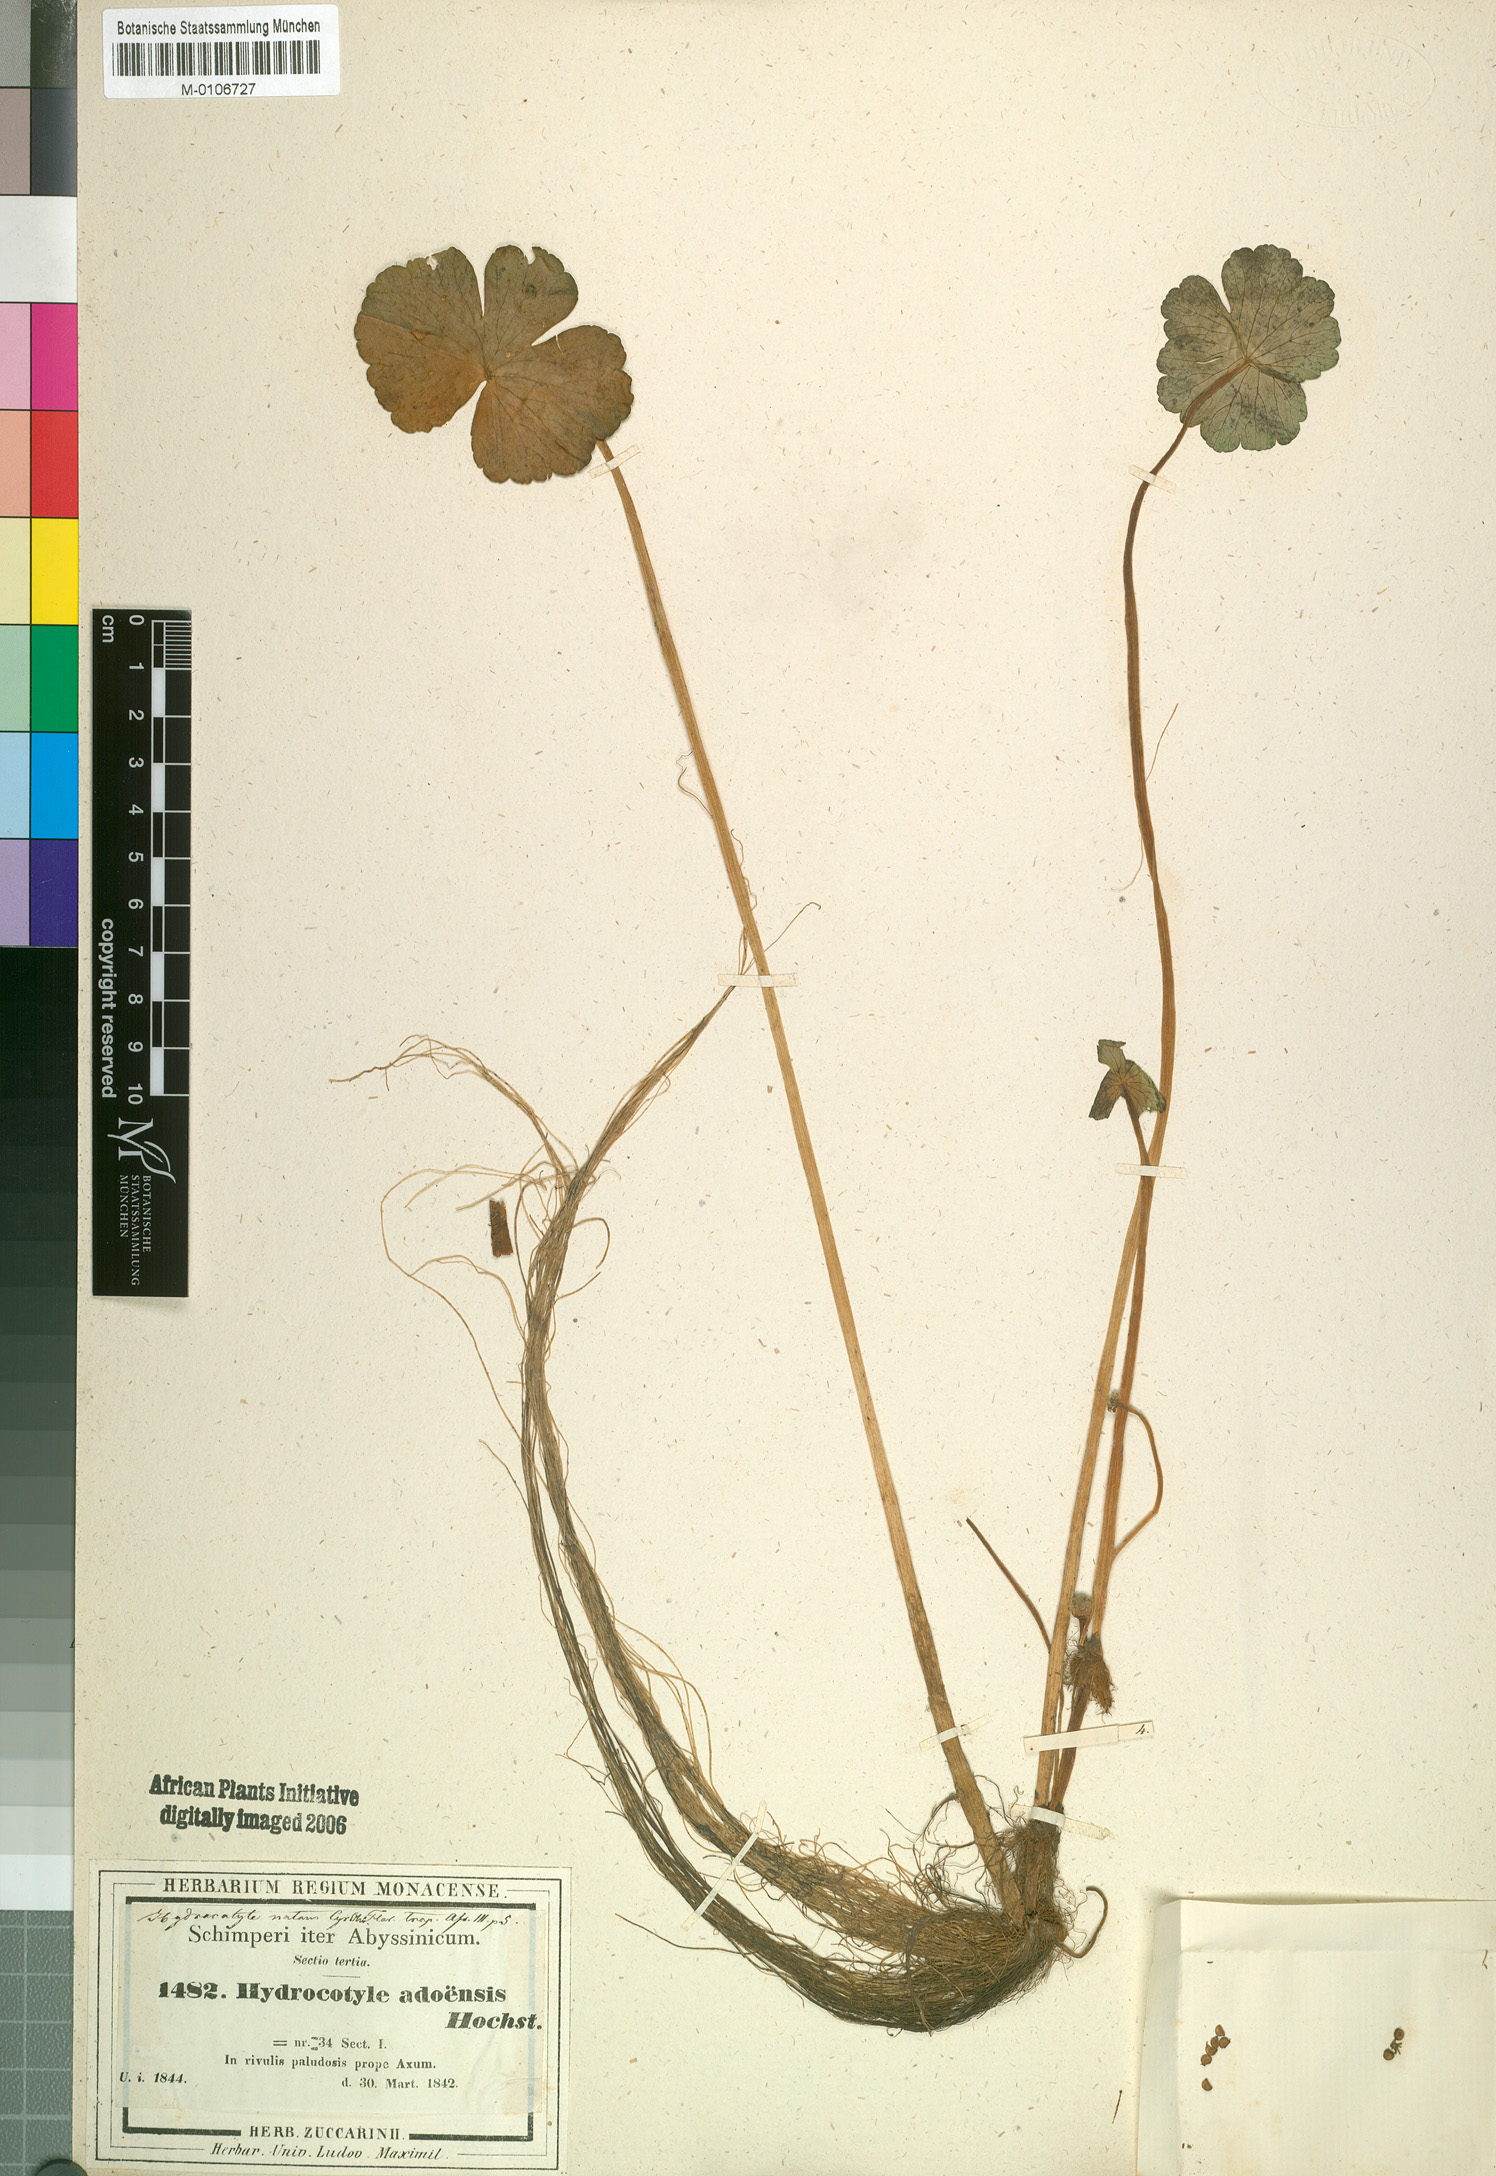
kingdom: Plantae
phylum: Tracheophyta
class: Magnoliopsida
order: Apiales
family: Araliaceae
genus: Hydrocotyle
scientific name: Hydrocotyle ranunculoides
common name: Floating pennywort
